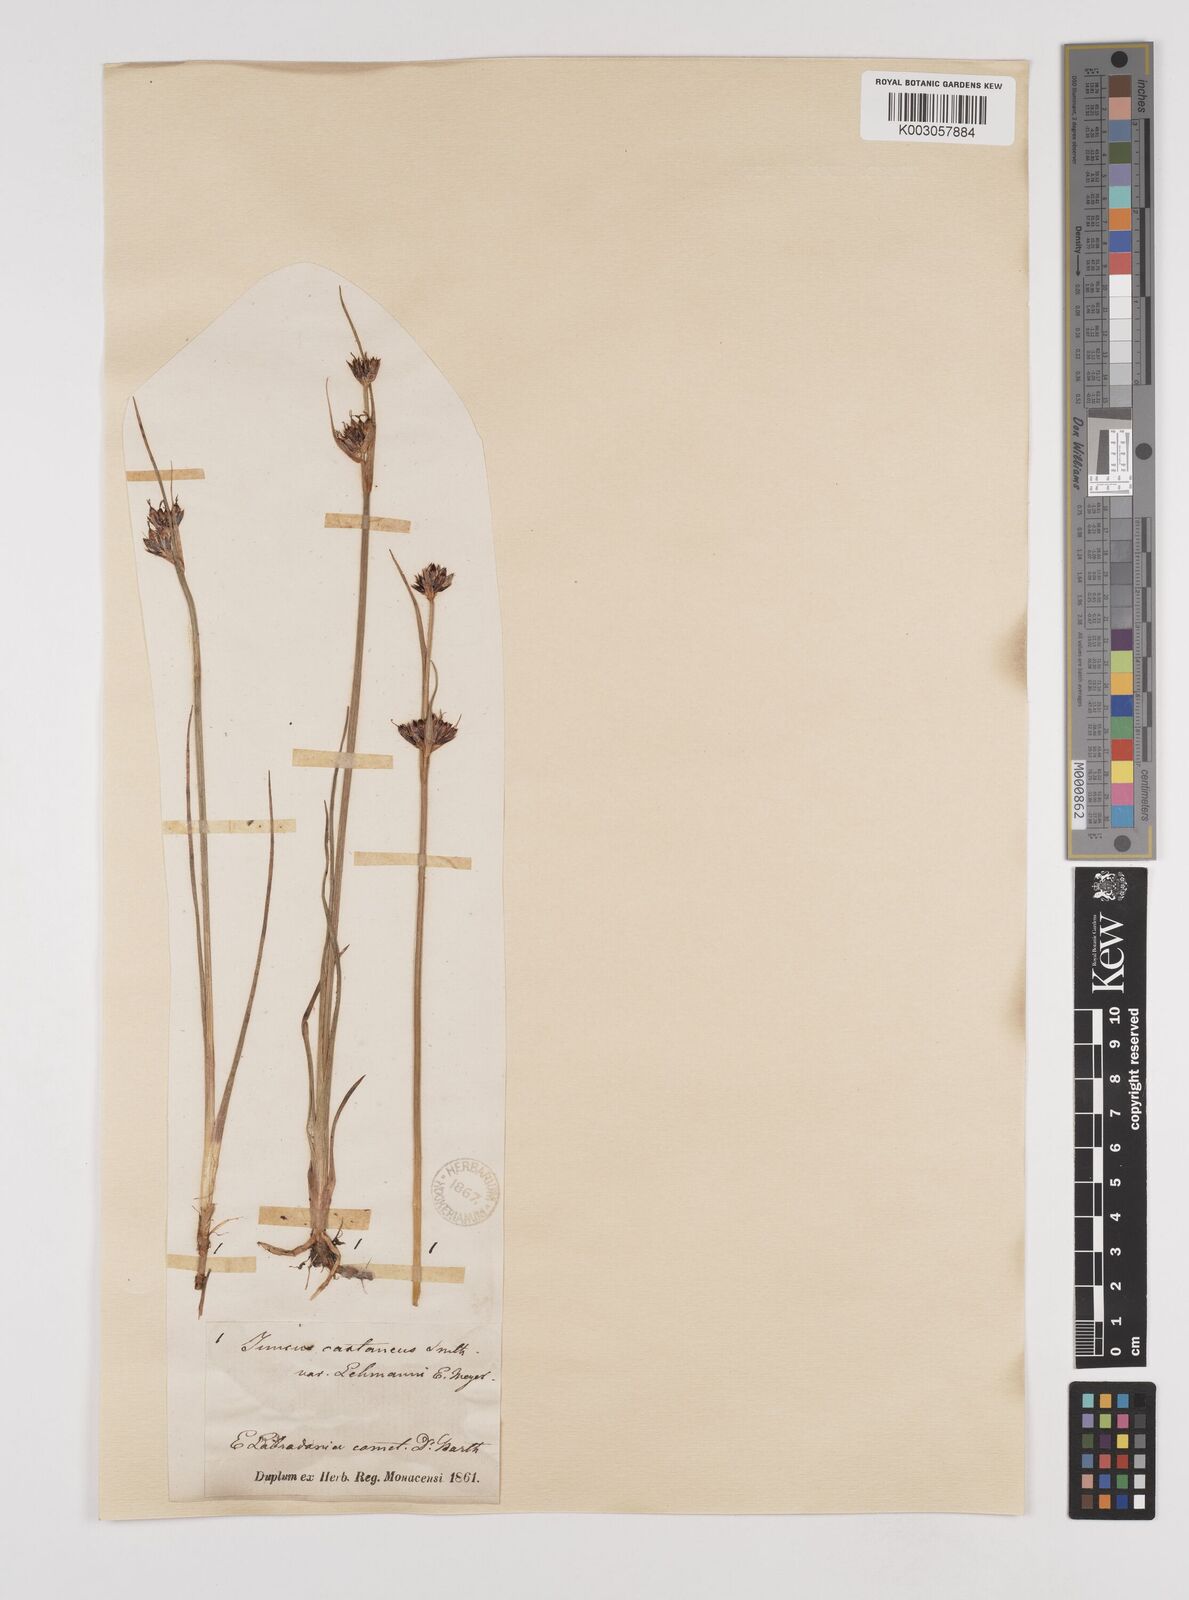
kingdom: Plantae
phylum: Tracheophyta
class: Liliopsida
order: Poales
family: Juncaceae
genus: Juncus
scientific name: Juncus castaneus
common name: Chestnut rush
